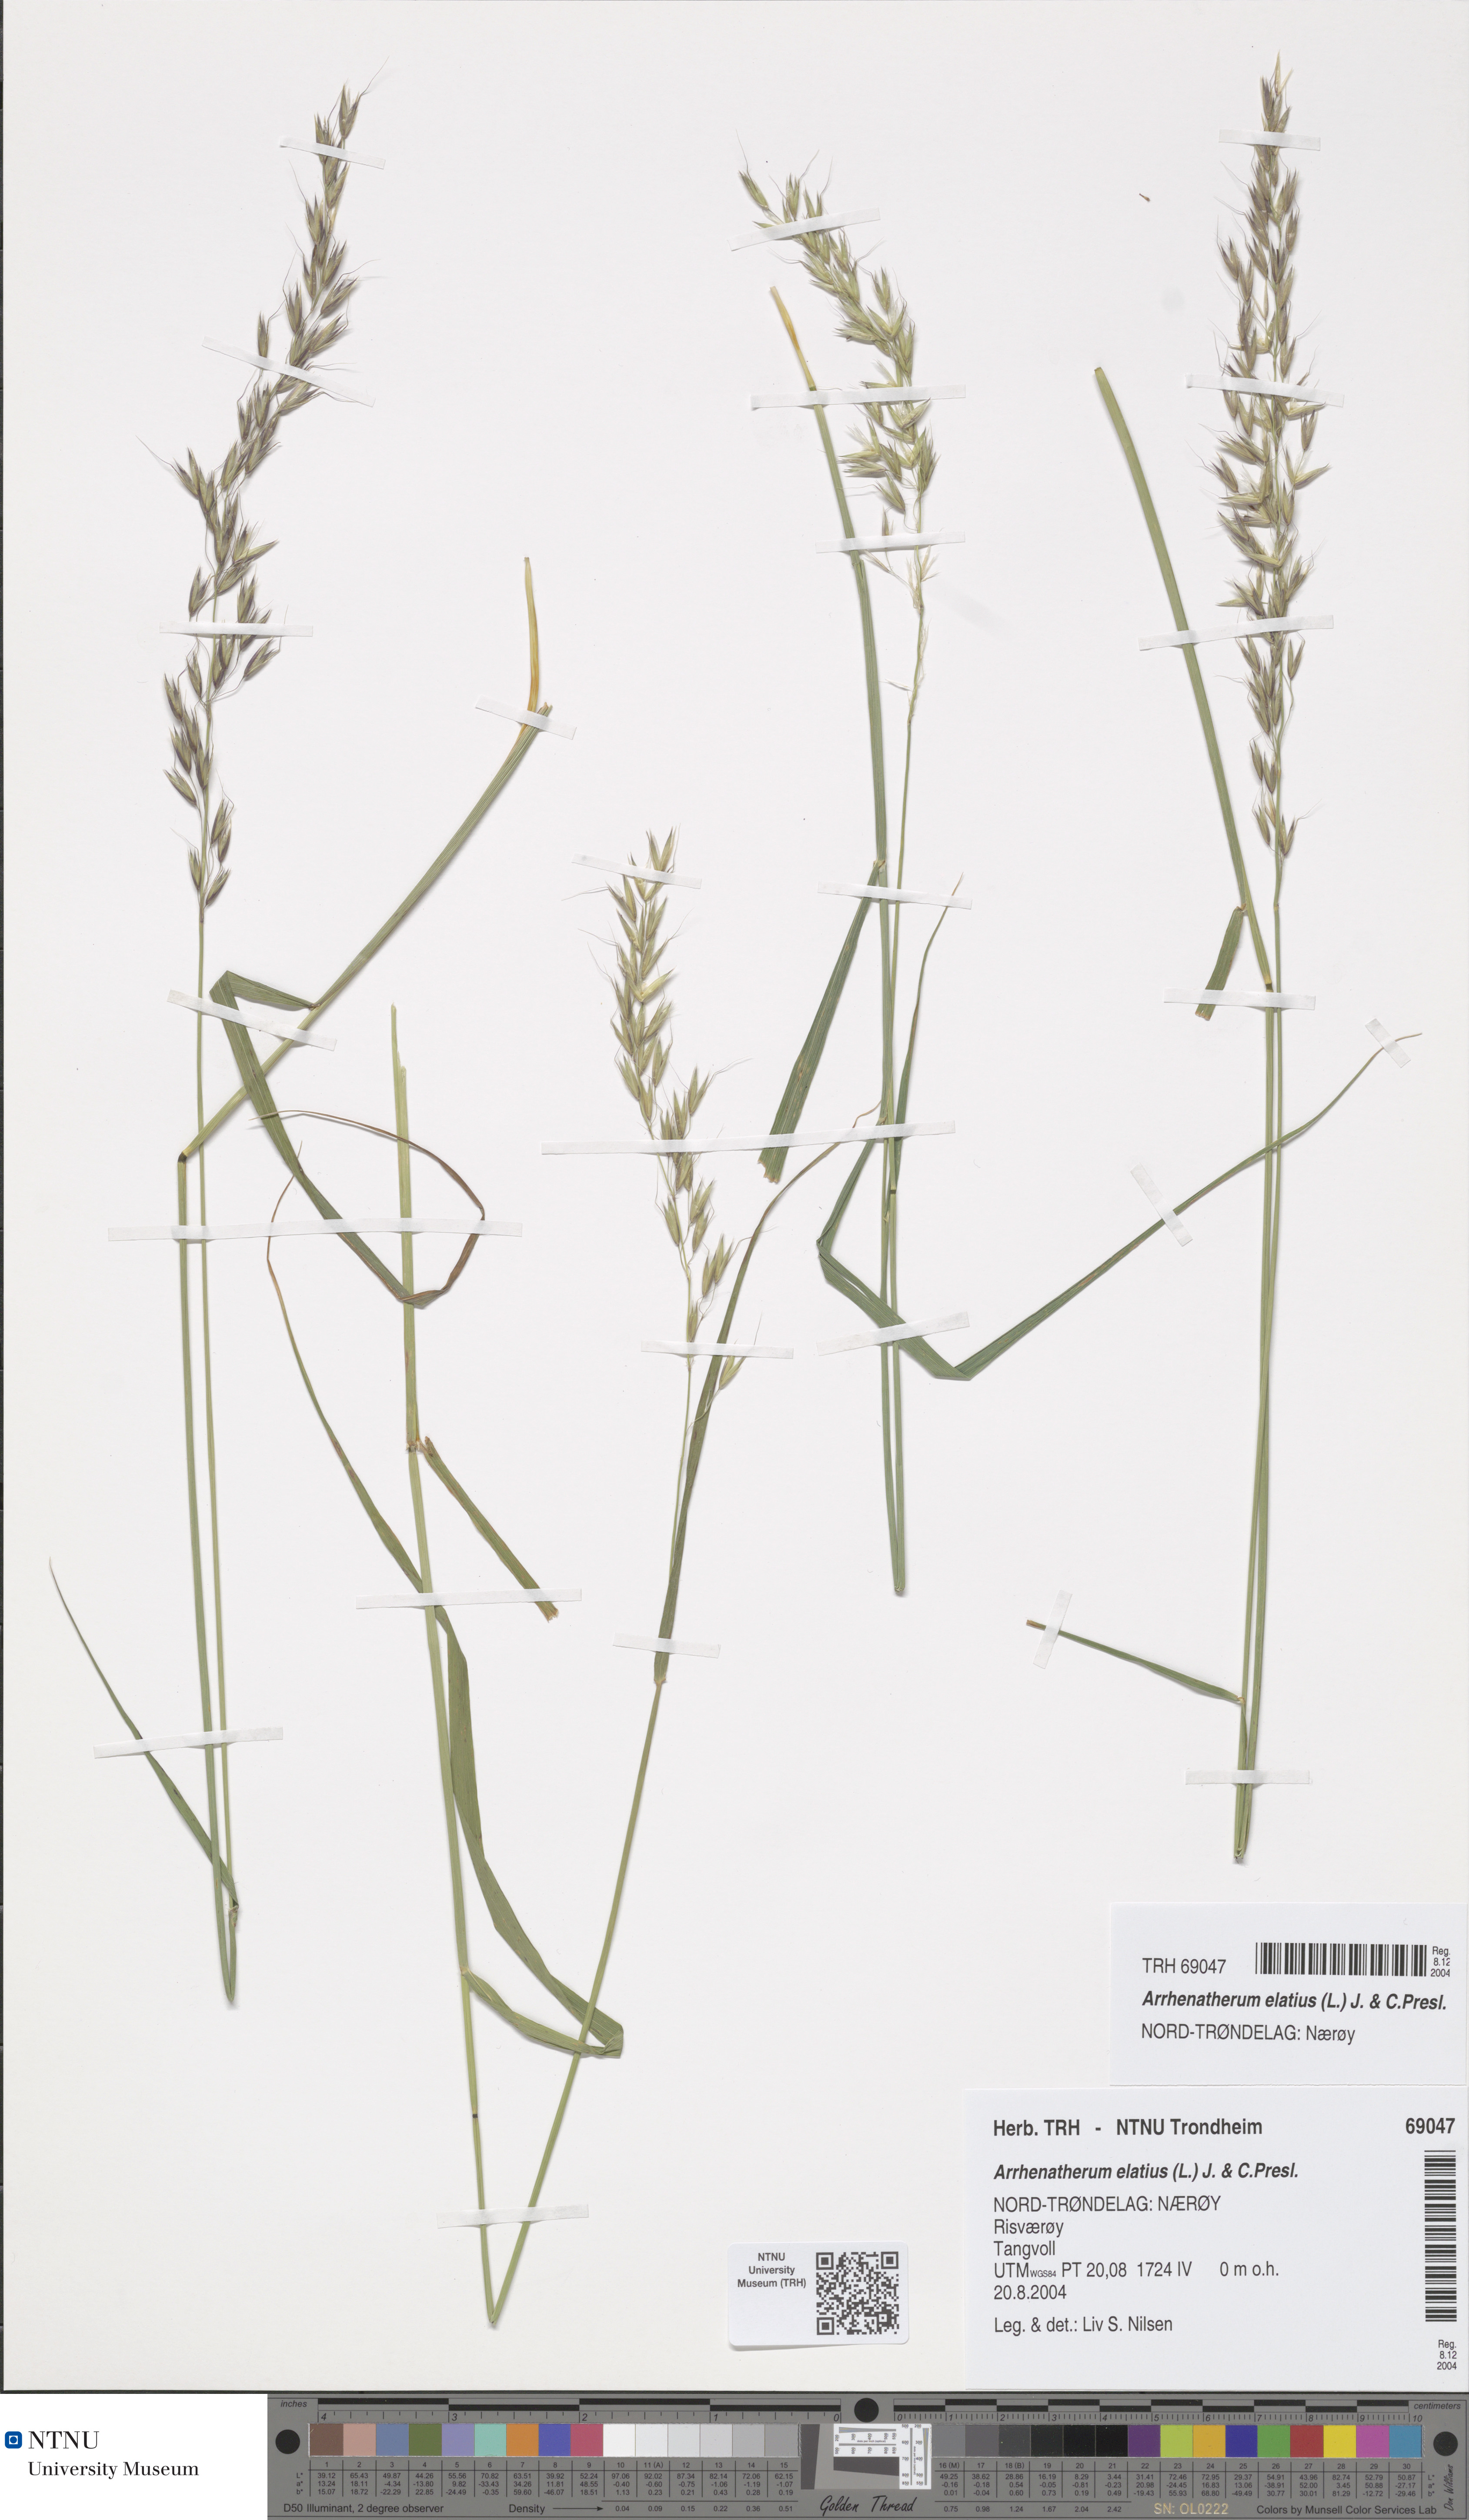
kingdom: Plantae
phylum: Tracheophyta
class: Liliopsida
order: Poales
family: Poaceae
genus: Arrhenatherum
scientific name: Arrhenatherum elatius
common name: Tall oatgrass
